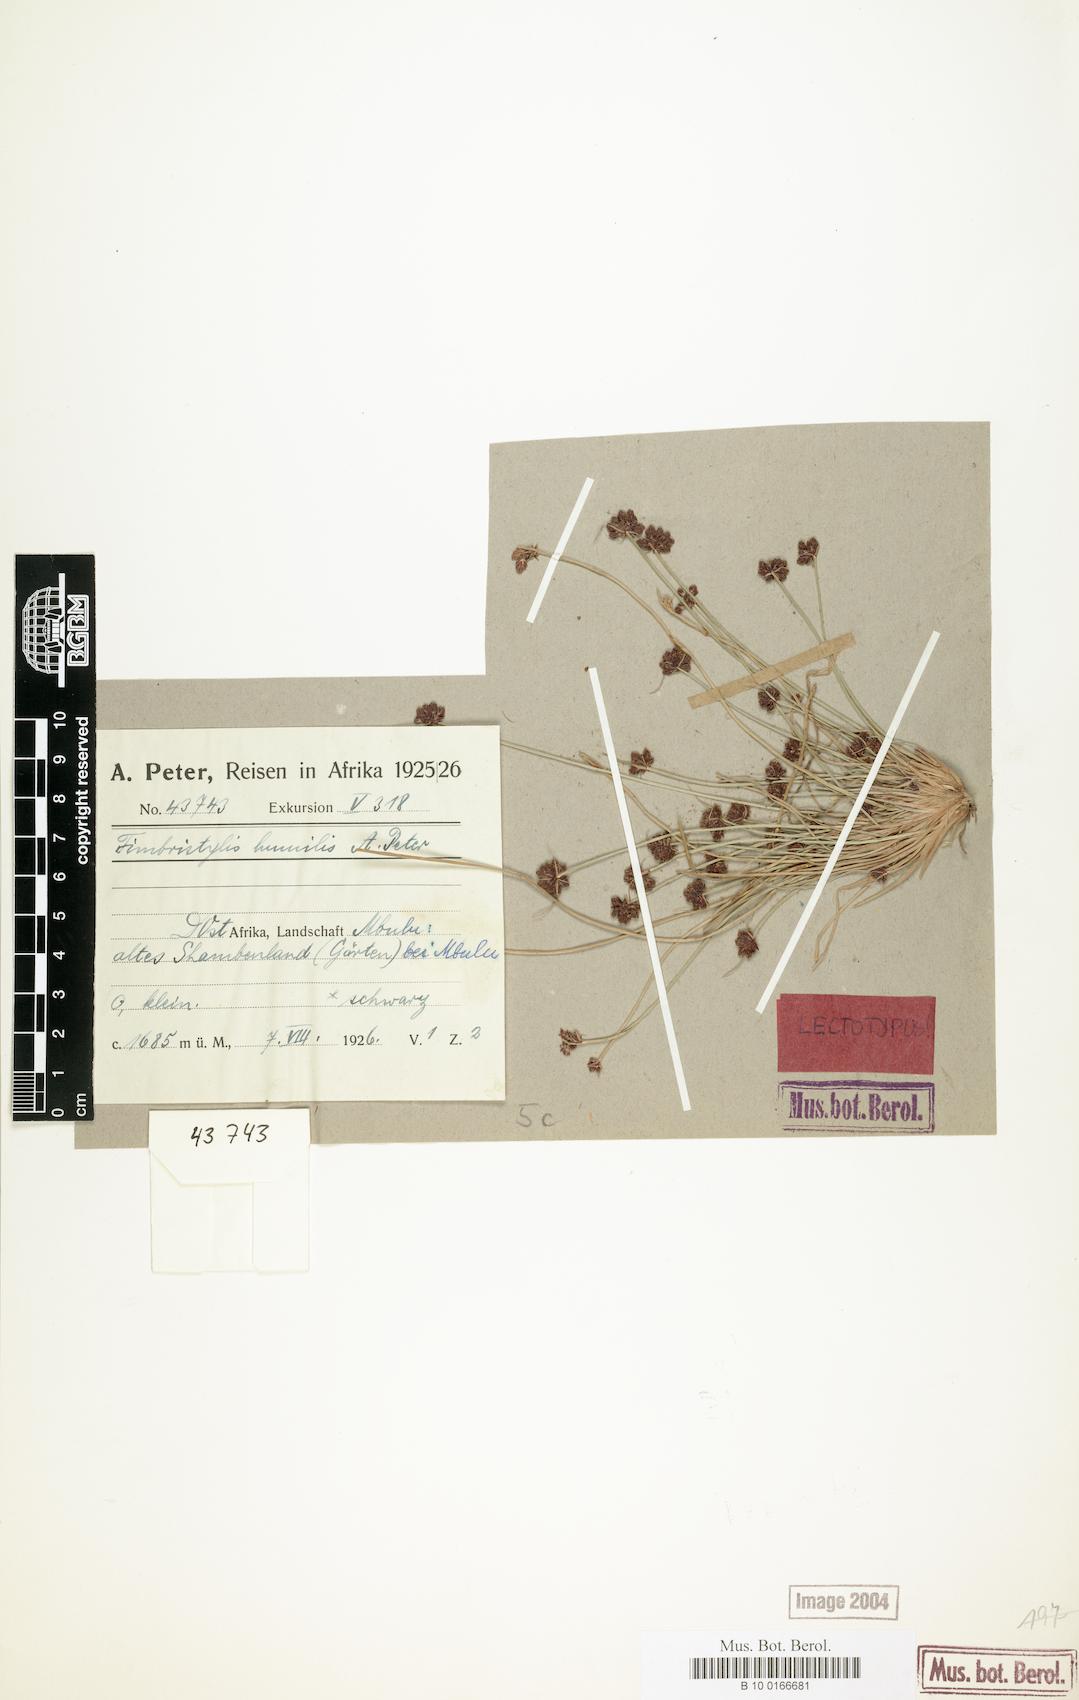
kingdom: Plantae
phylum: Tracheophyta
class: Liliopsida
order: Poales
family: Cyperaceae
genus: Bulbostylis
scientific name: Bulbostylis schimperiana
